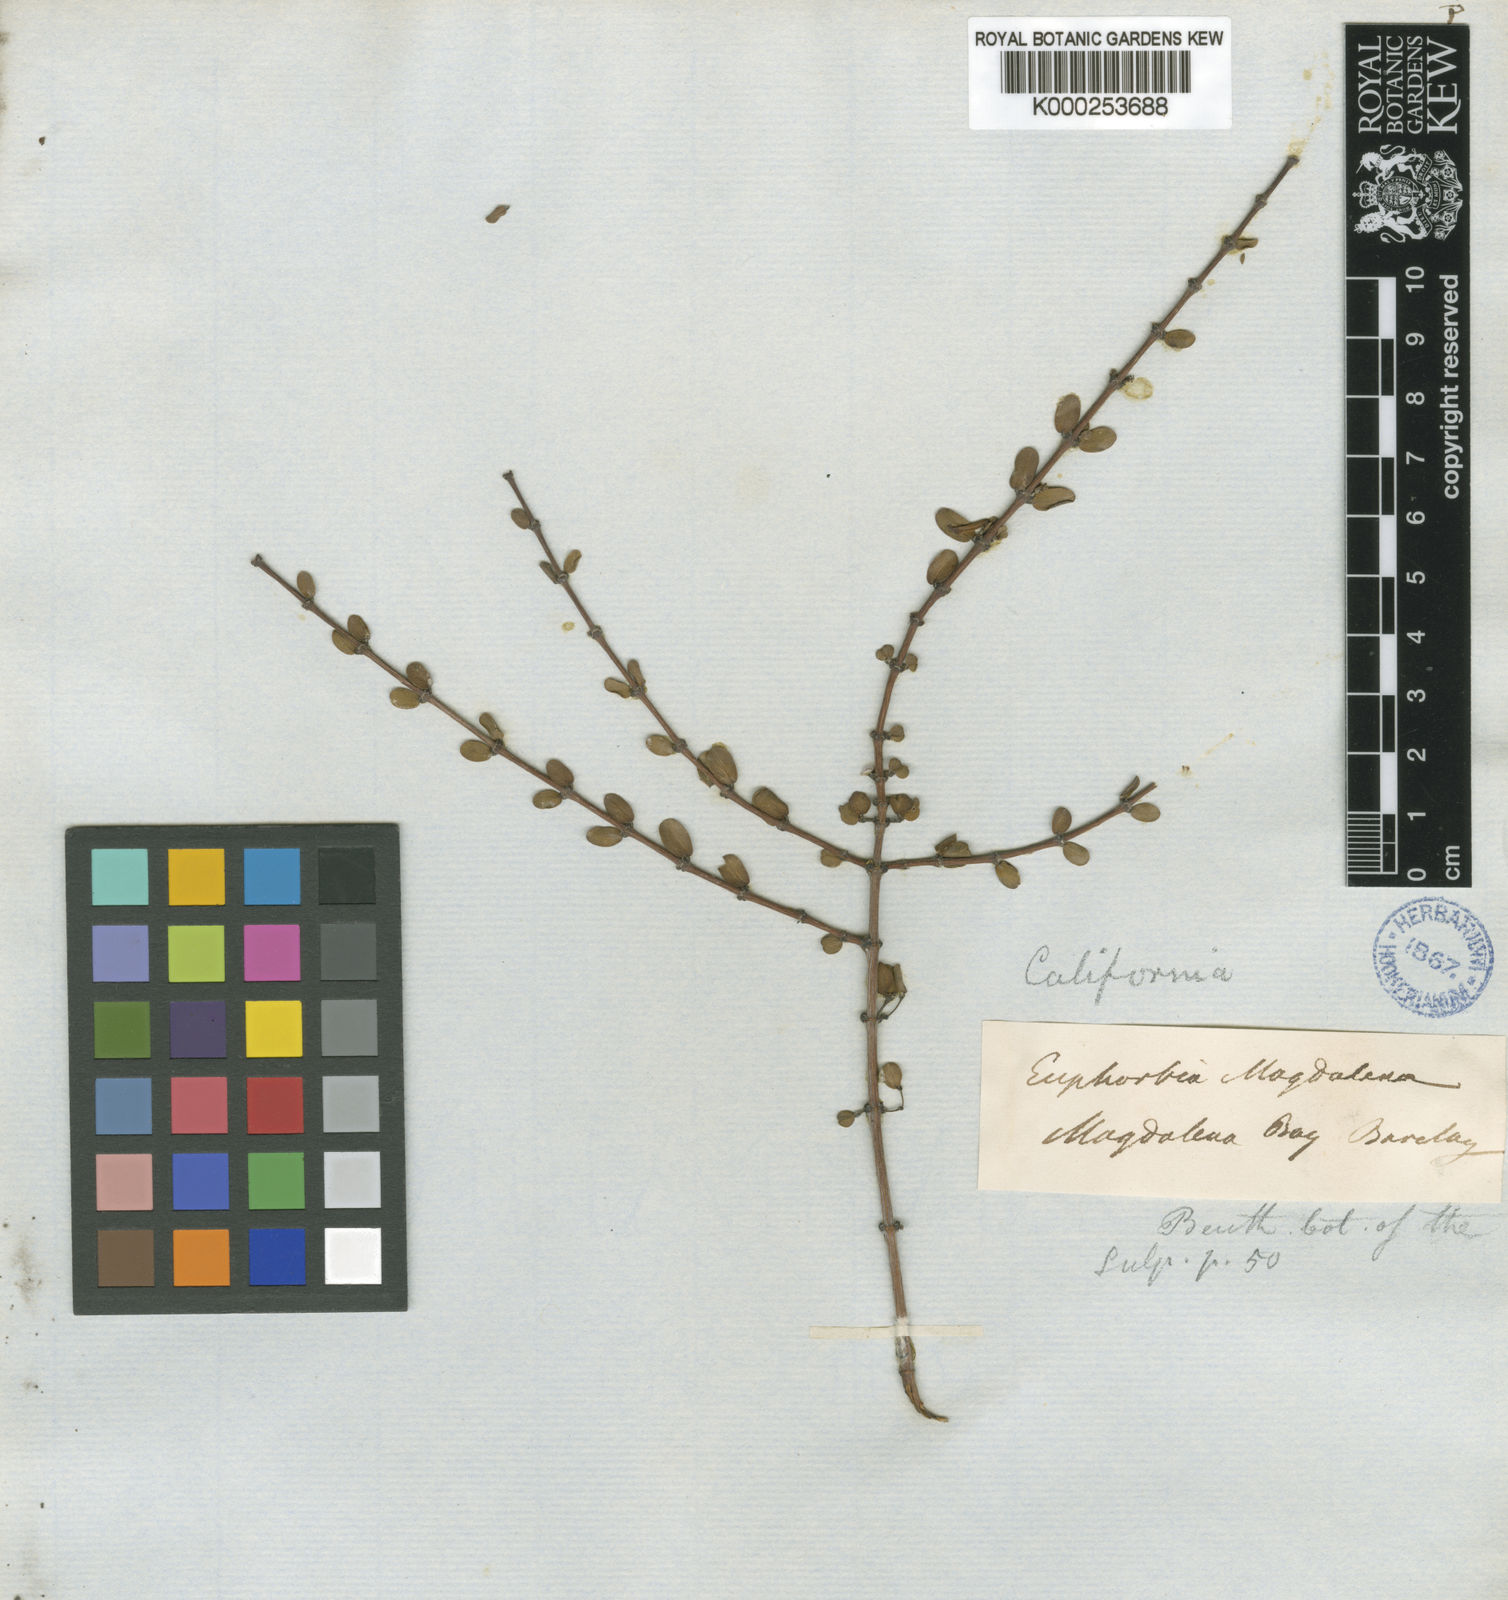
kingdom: Plantae
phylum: Tracheophyta
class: Magnoliopsida
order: Malpighiales
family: Euphorbiaceae
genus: Euphorbia
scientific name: Euphorbia magdalenae
